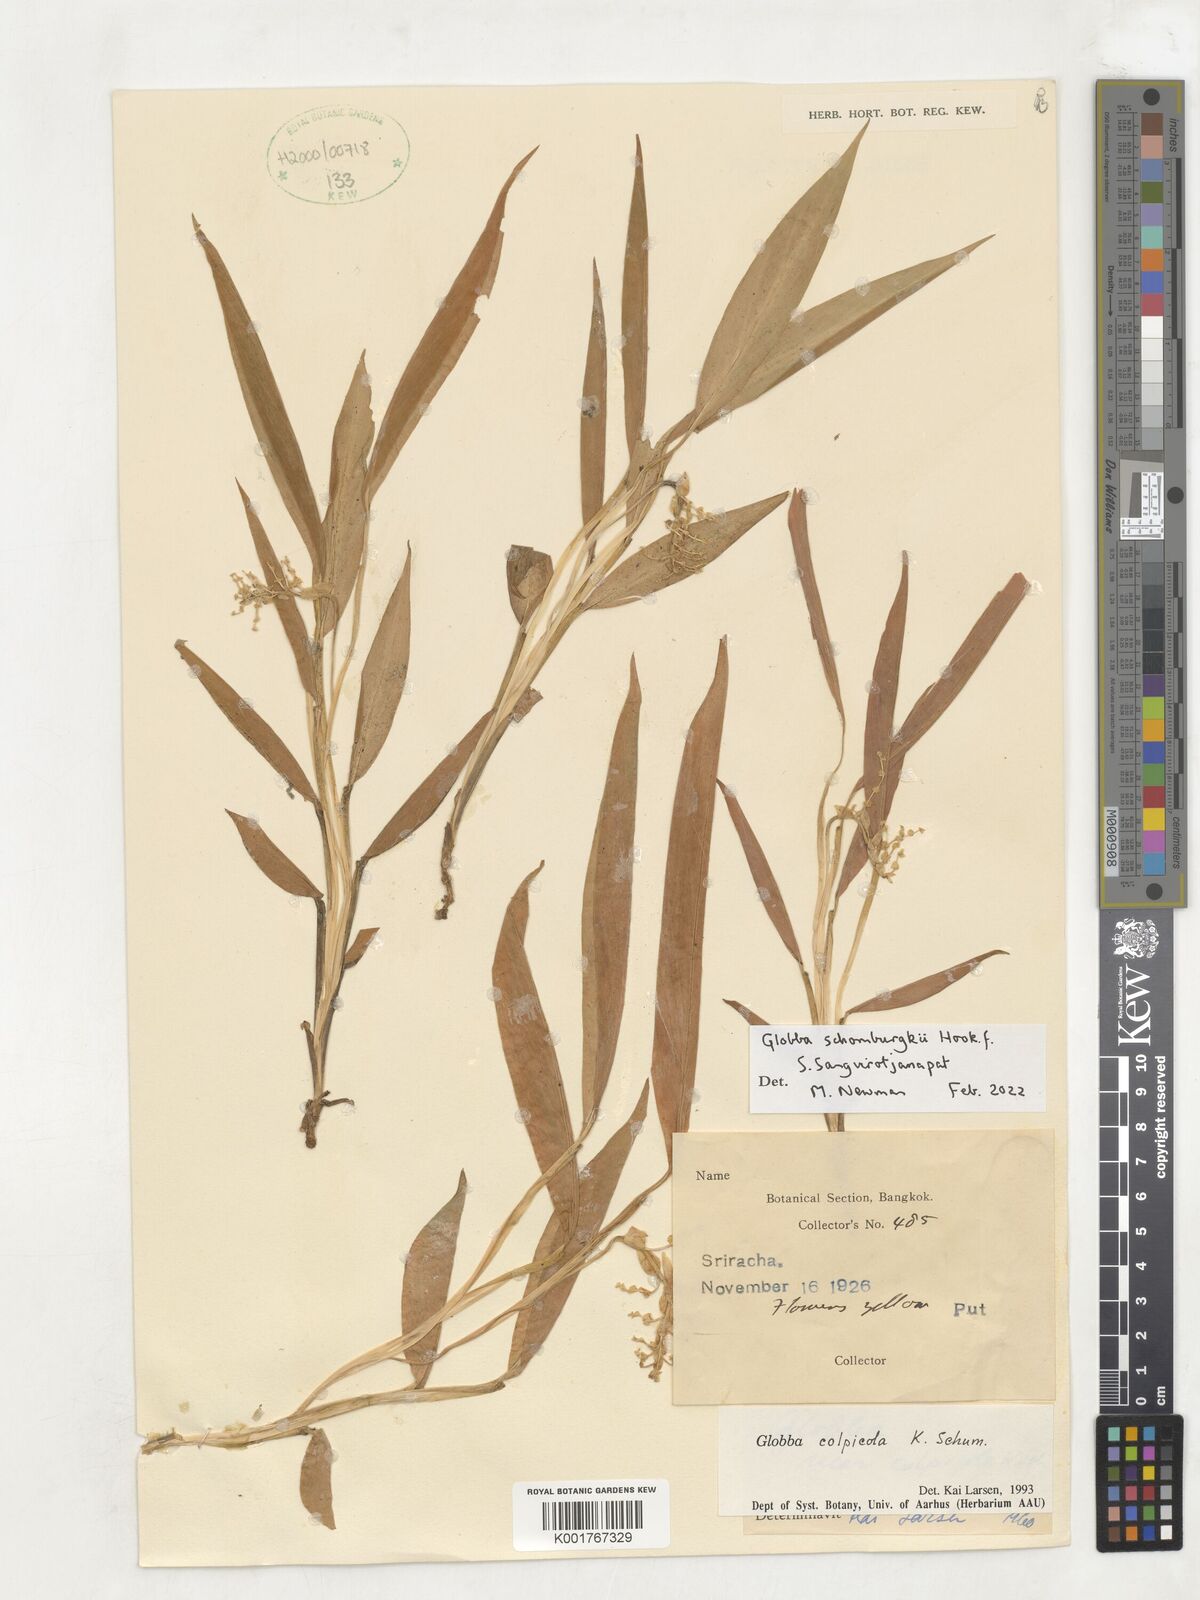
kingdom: Plantae
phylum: Tracheophyta
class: Liliopsida
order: Zingiberales
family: Zingiberaceae
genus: Globba
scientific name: Globba schomburgkii
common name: Dancing girl ginger
